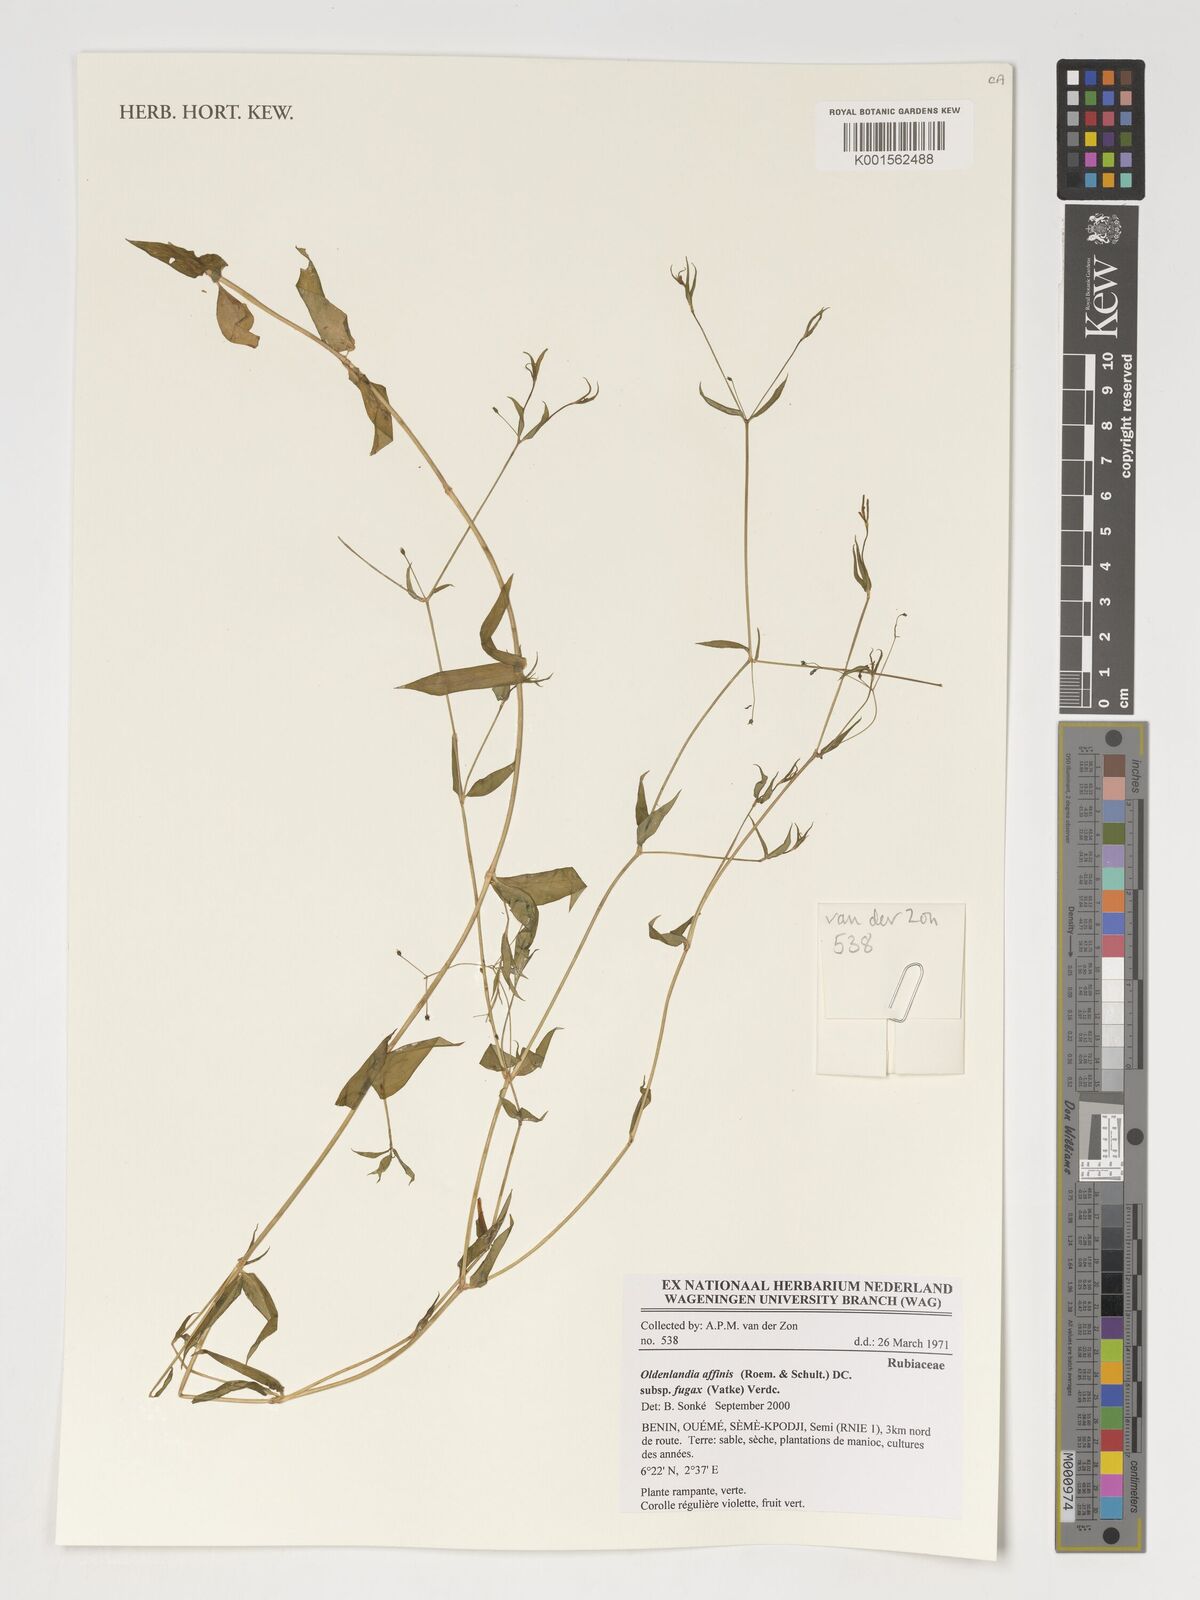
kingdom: Plantae
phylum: Tracheophyta
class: Magnoliopsida
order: Gentianales
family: Rubiaceae
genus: Oldenlandia
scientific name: Oldenlandia affinis
